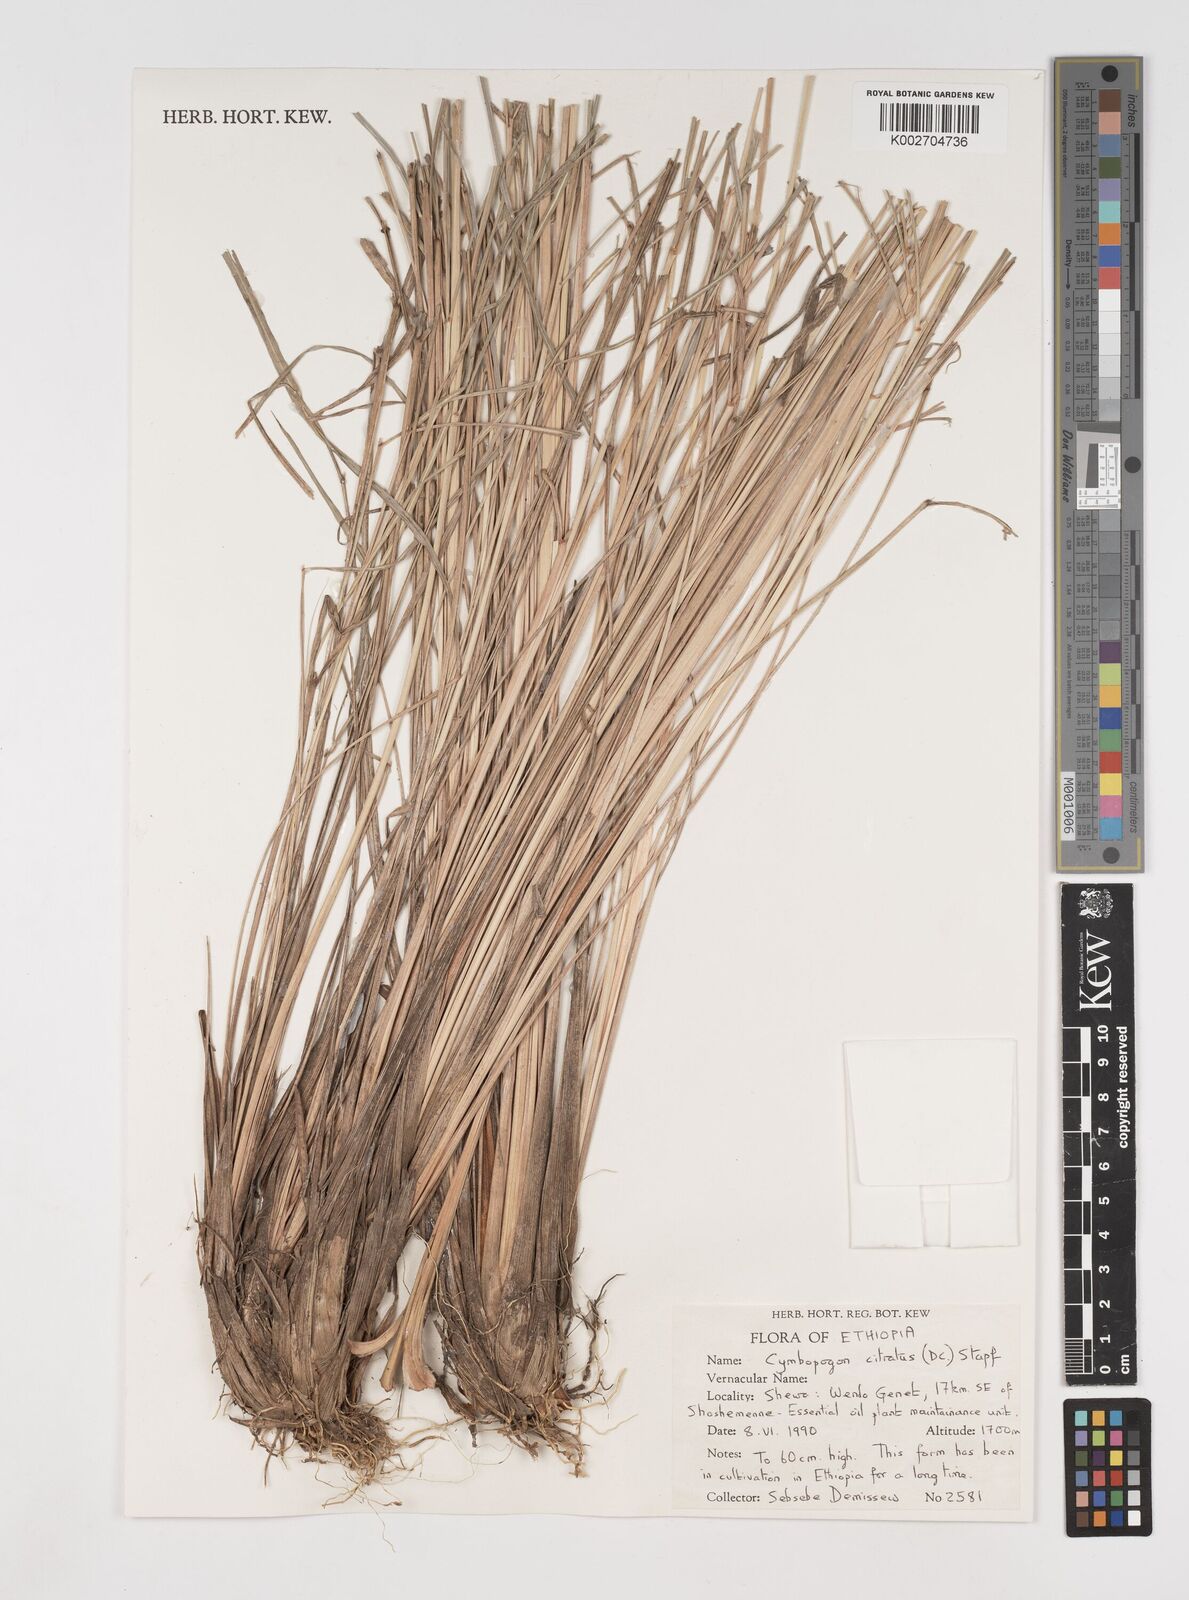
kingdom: Plantae
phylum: Tracheophyta
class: Liliopsida
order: Poales
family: Poaceae
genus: Cymbopogon
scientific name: Cymbopogon citratus
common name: Lemon grass
